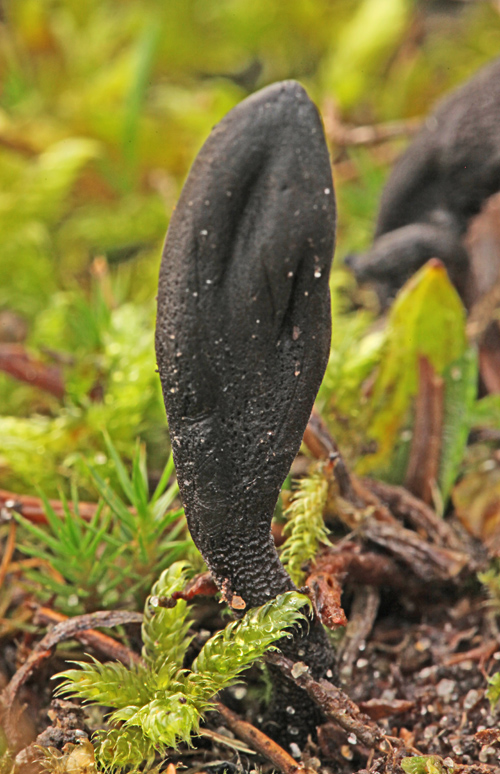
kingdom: Fungi
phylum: Ascomycota
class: Geoglossomycetes
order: Geoglossales
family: Geoglossaceae
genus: Hemileucoglossum
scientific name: Hemileucoglossum elongatum
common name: småsporet jordtunge
